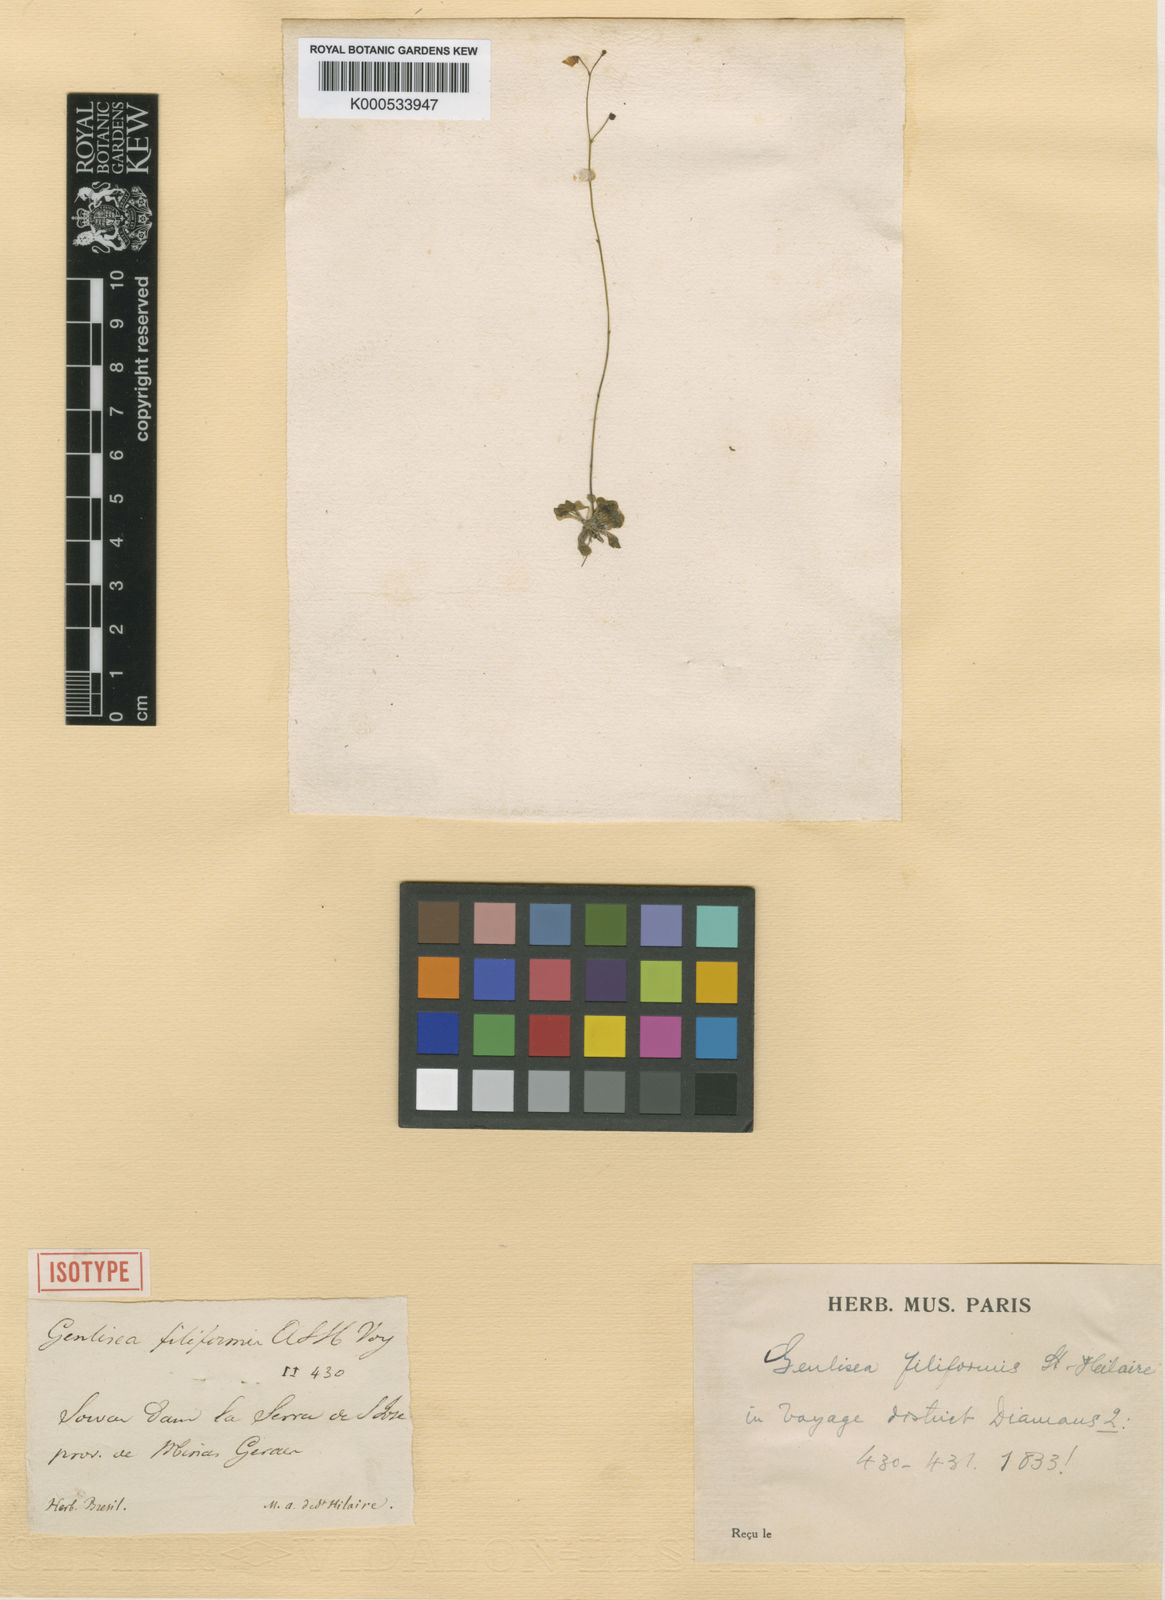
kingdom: Plantae
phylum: Tracheophyta
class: Magnoliopsida
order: Lamiales
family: Lentibulariaceae
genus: Genlisea
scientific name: Genlisea filiformis
